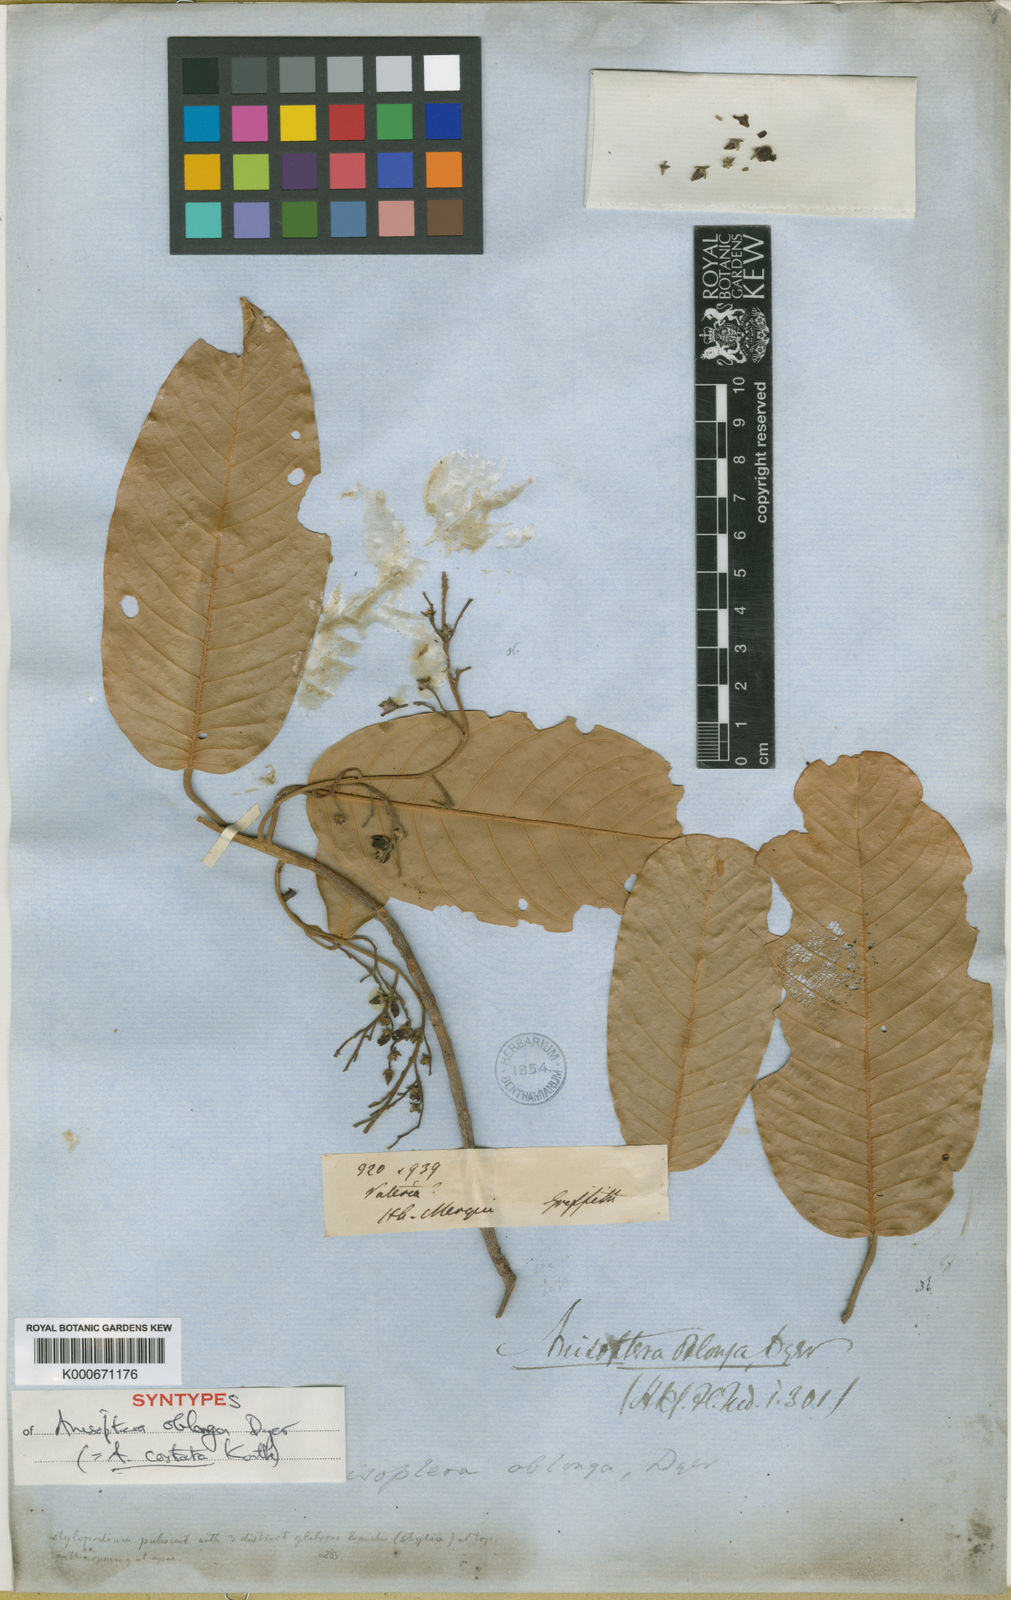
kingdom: Plantae
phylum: Tracheophyta
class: Magnoliopsida
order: Malvales
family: Dipterocarpaceae
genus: Anisoptera
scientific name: Anisoptera costata
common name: Mersawa
